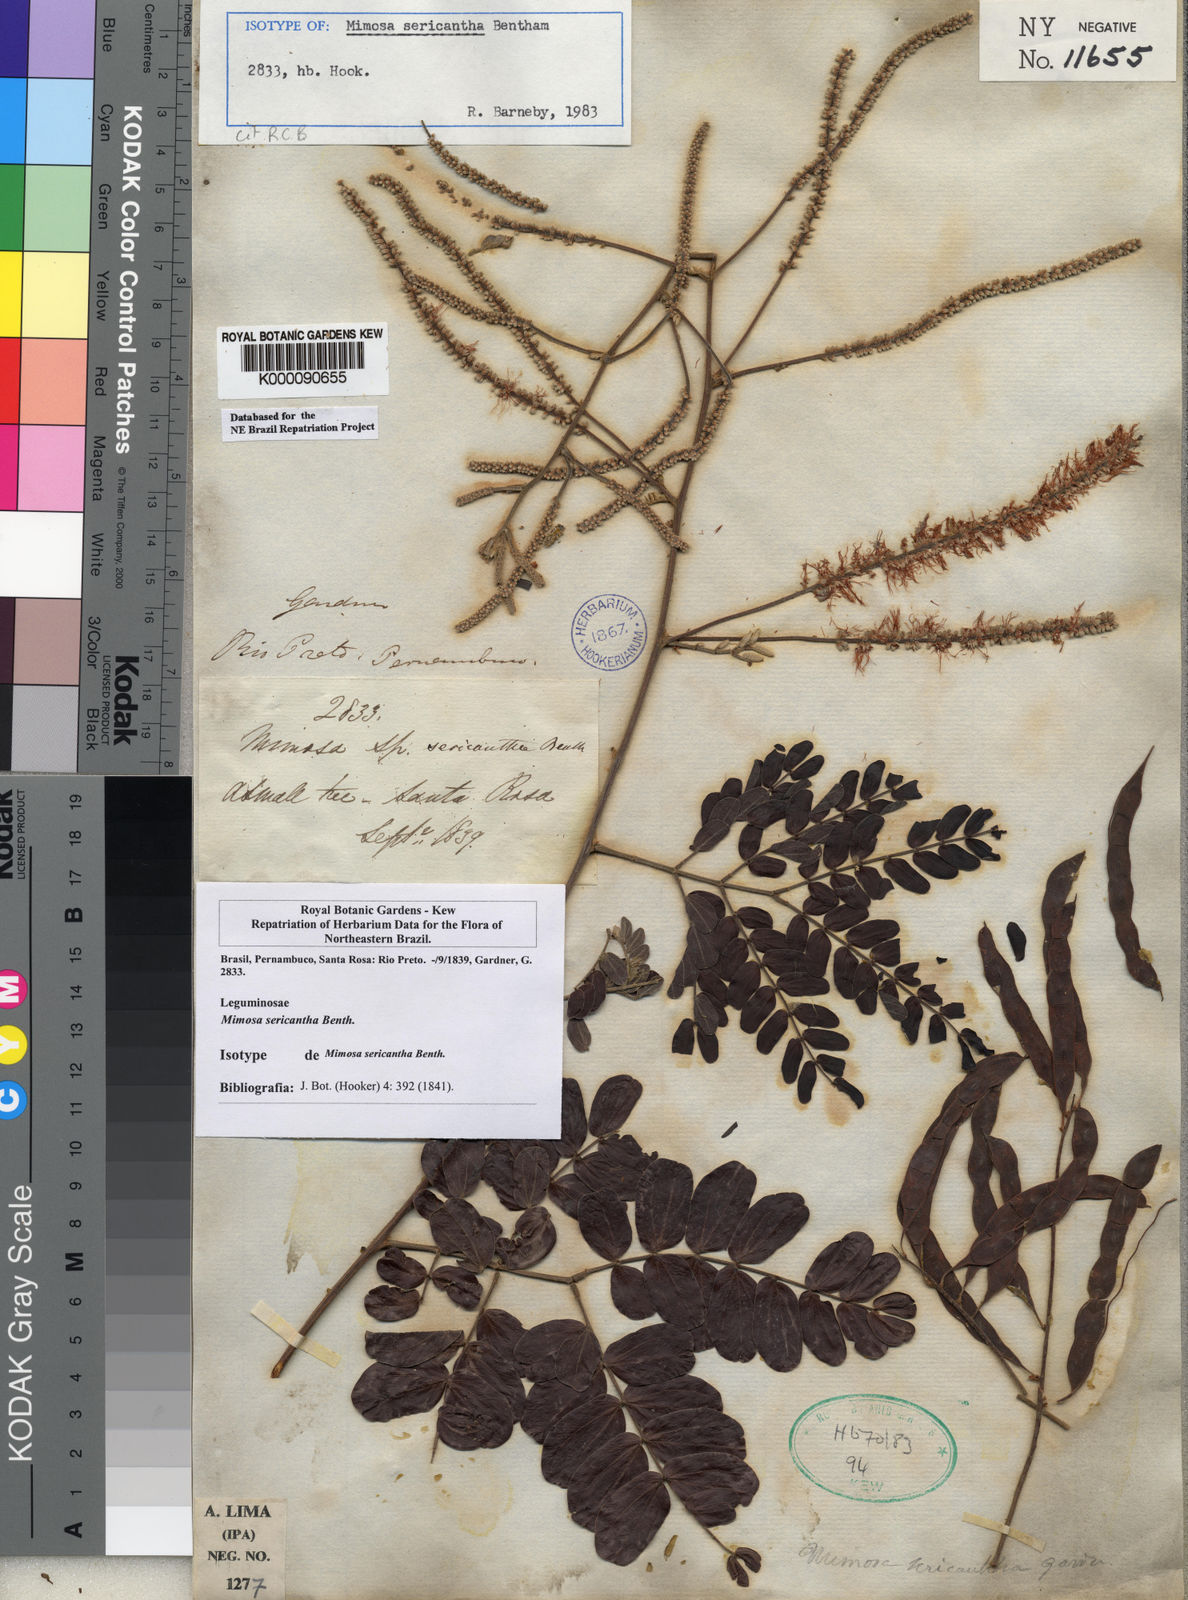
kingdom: Plantae
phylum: Tracheophyta
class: Magnoliopsida
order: Fabales
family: Fabaceae
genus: Mimosa
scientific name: Mimosa sericantha
